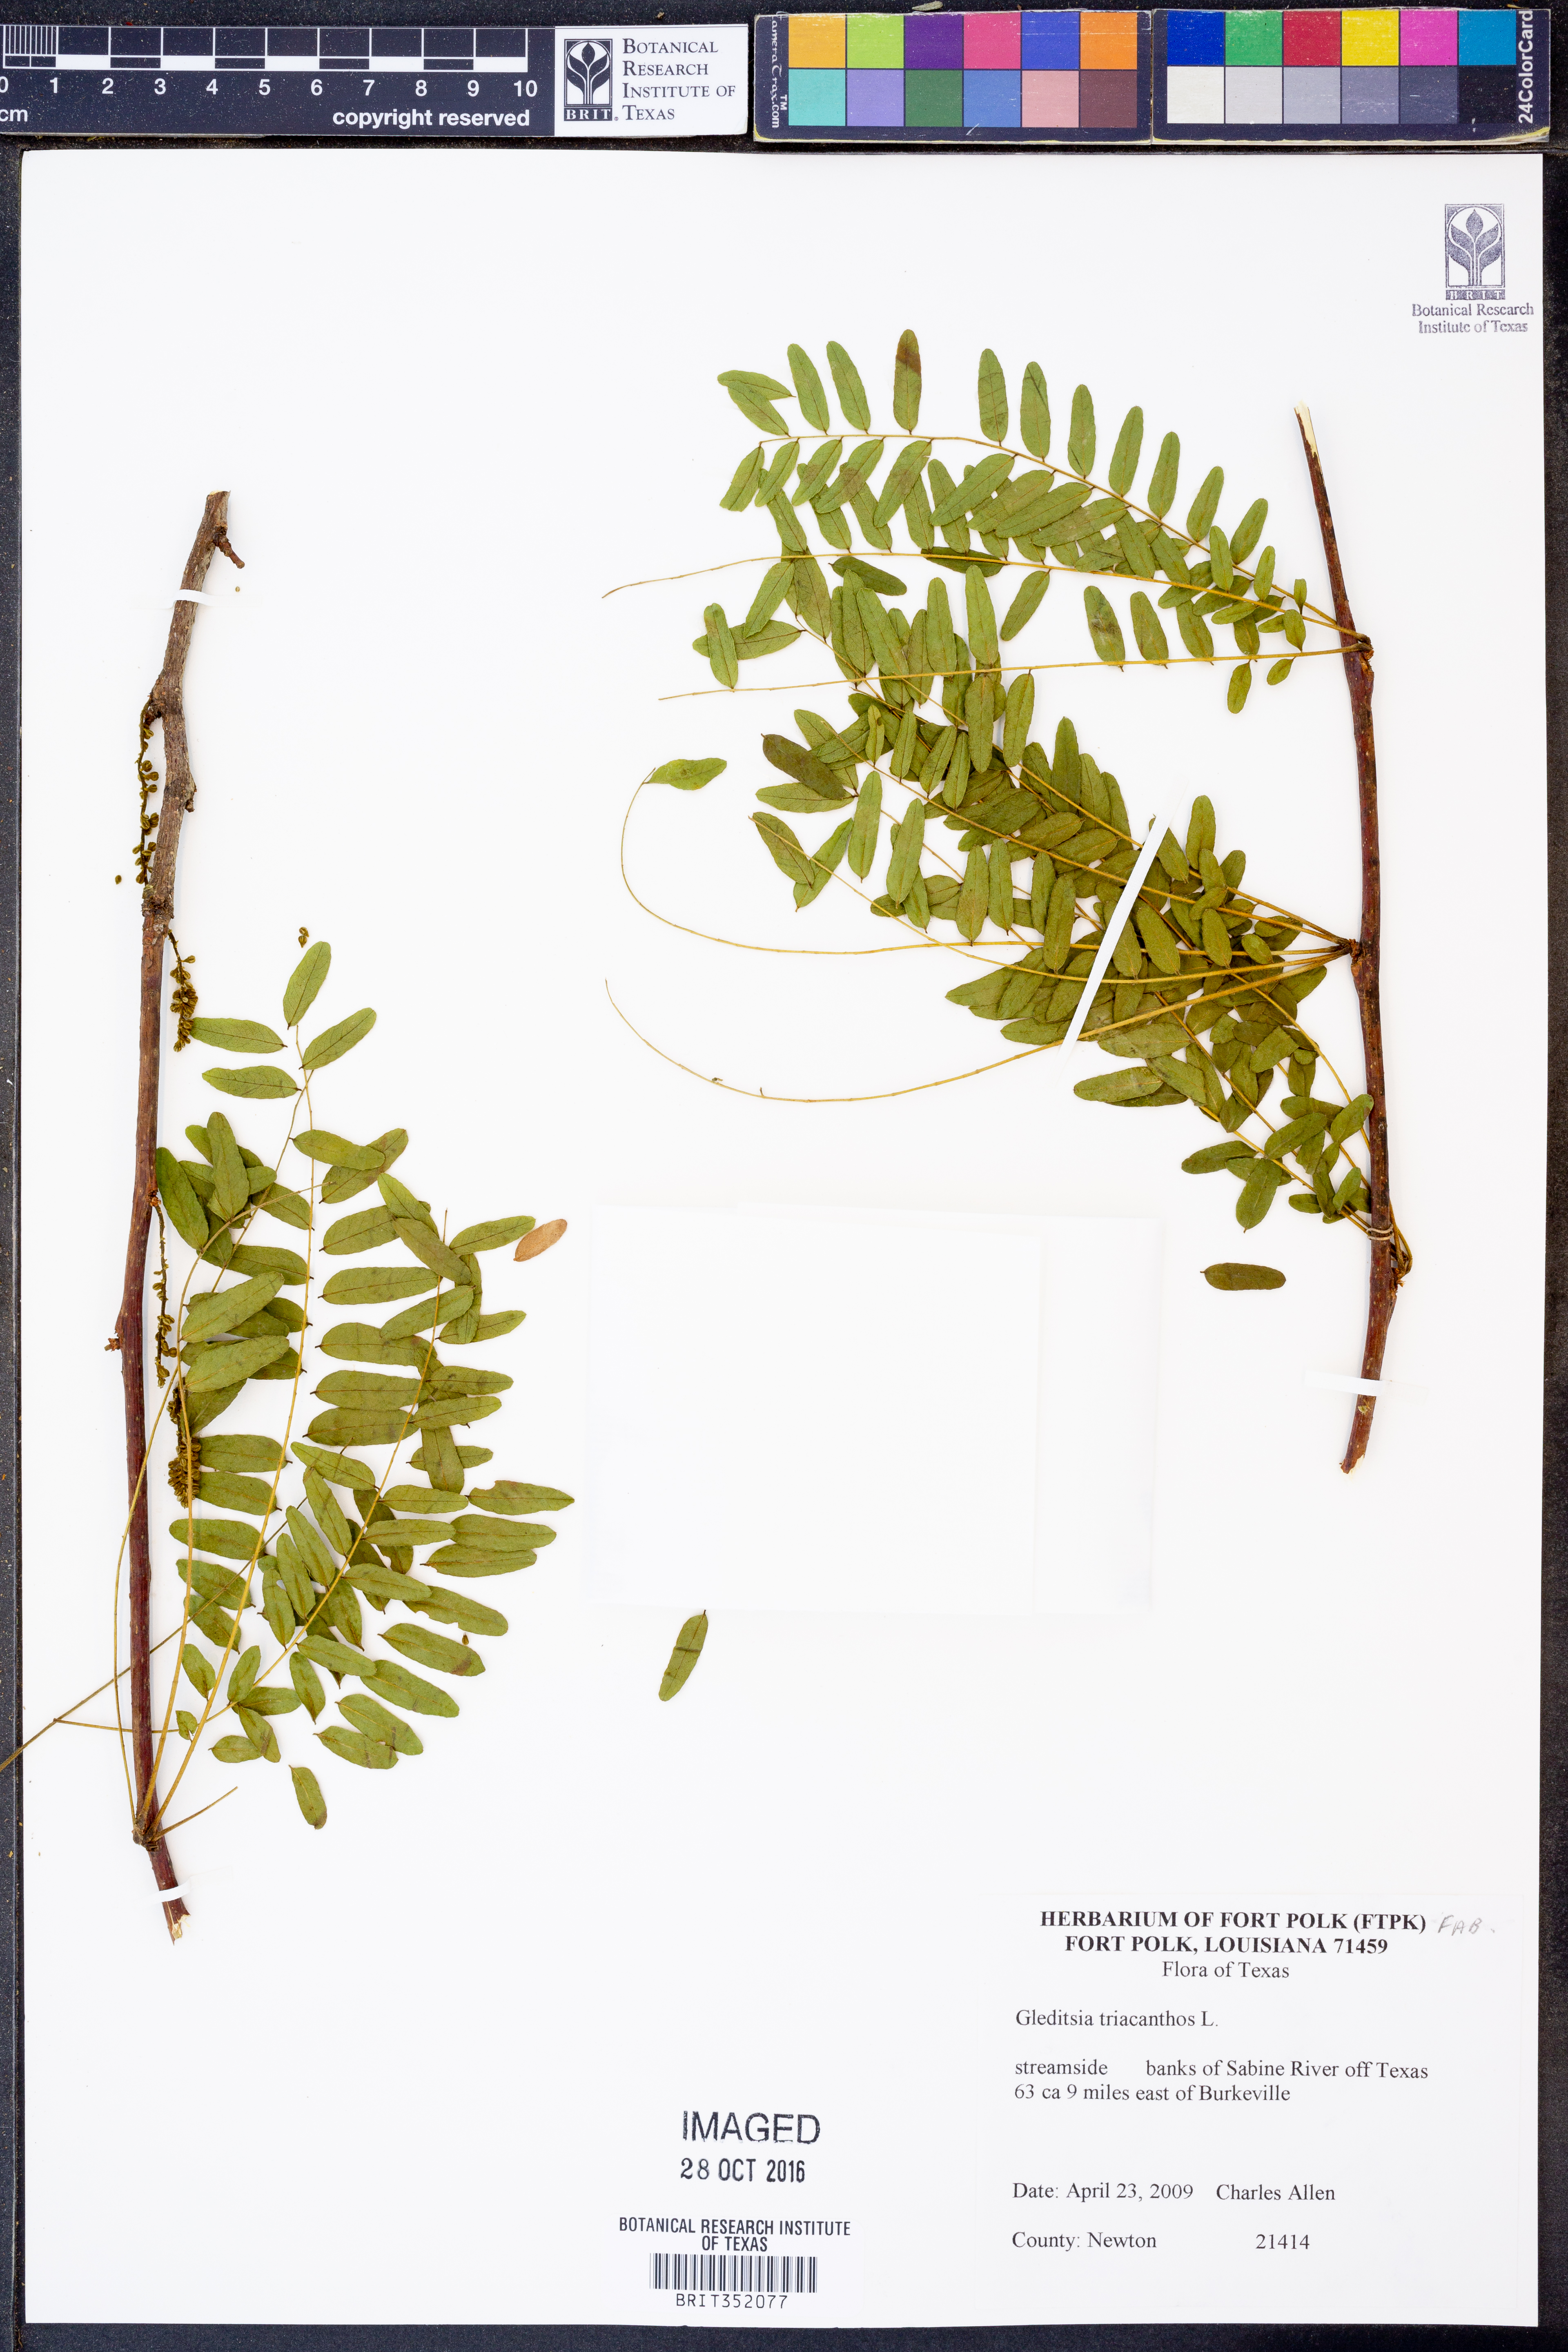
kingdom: Plantae
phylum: Tracheophyta
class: Magnoliopsida
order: Fabales
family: Fabaceae
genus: Gleditsia
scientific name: Gleditsia triacanthos
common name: Common honeylocust
